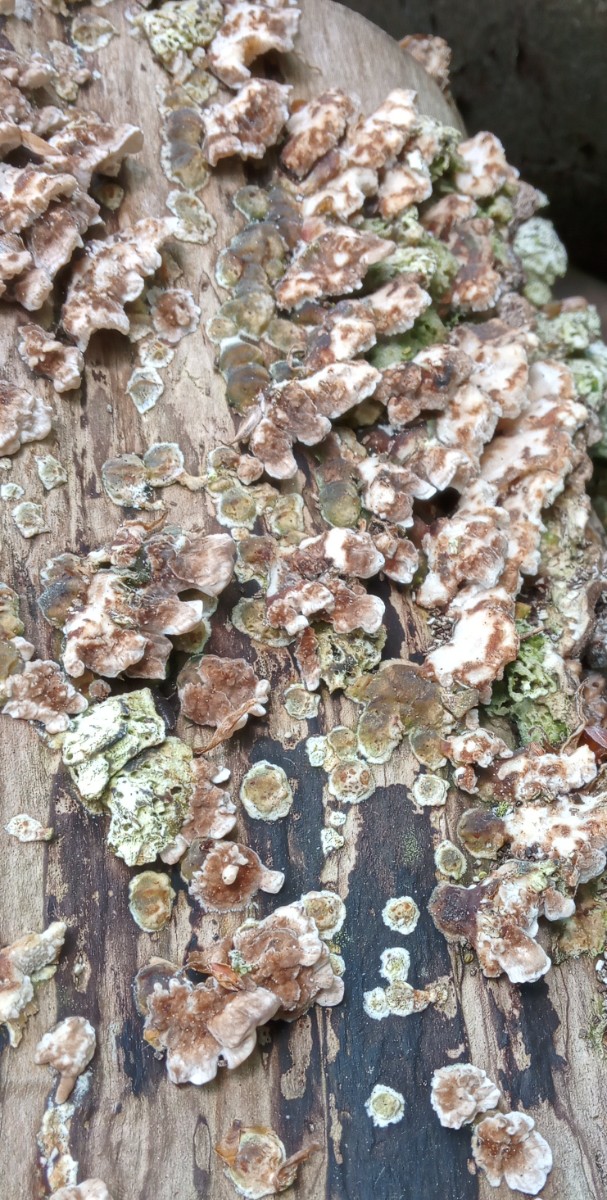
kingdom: Fungi
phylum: Basidiomycota
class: Agaricomycetes
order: Amylocorticiales
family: Amylocorticiaceae
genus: Plicaturopsis
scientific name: Plicaturopsis crispa
